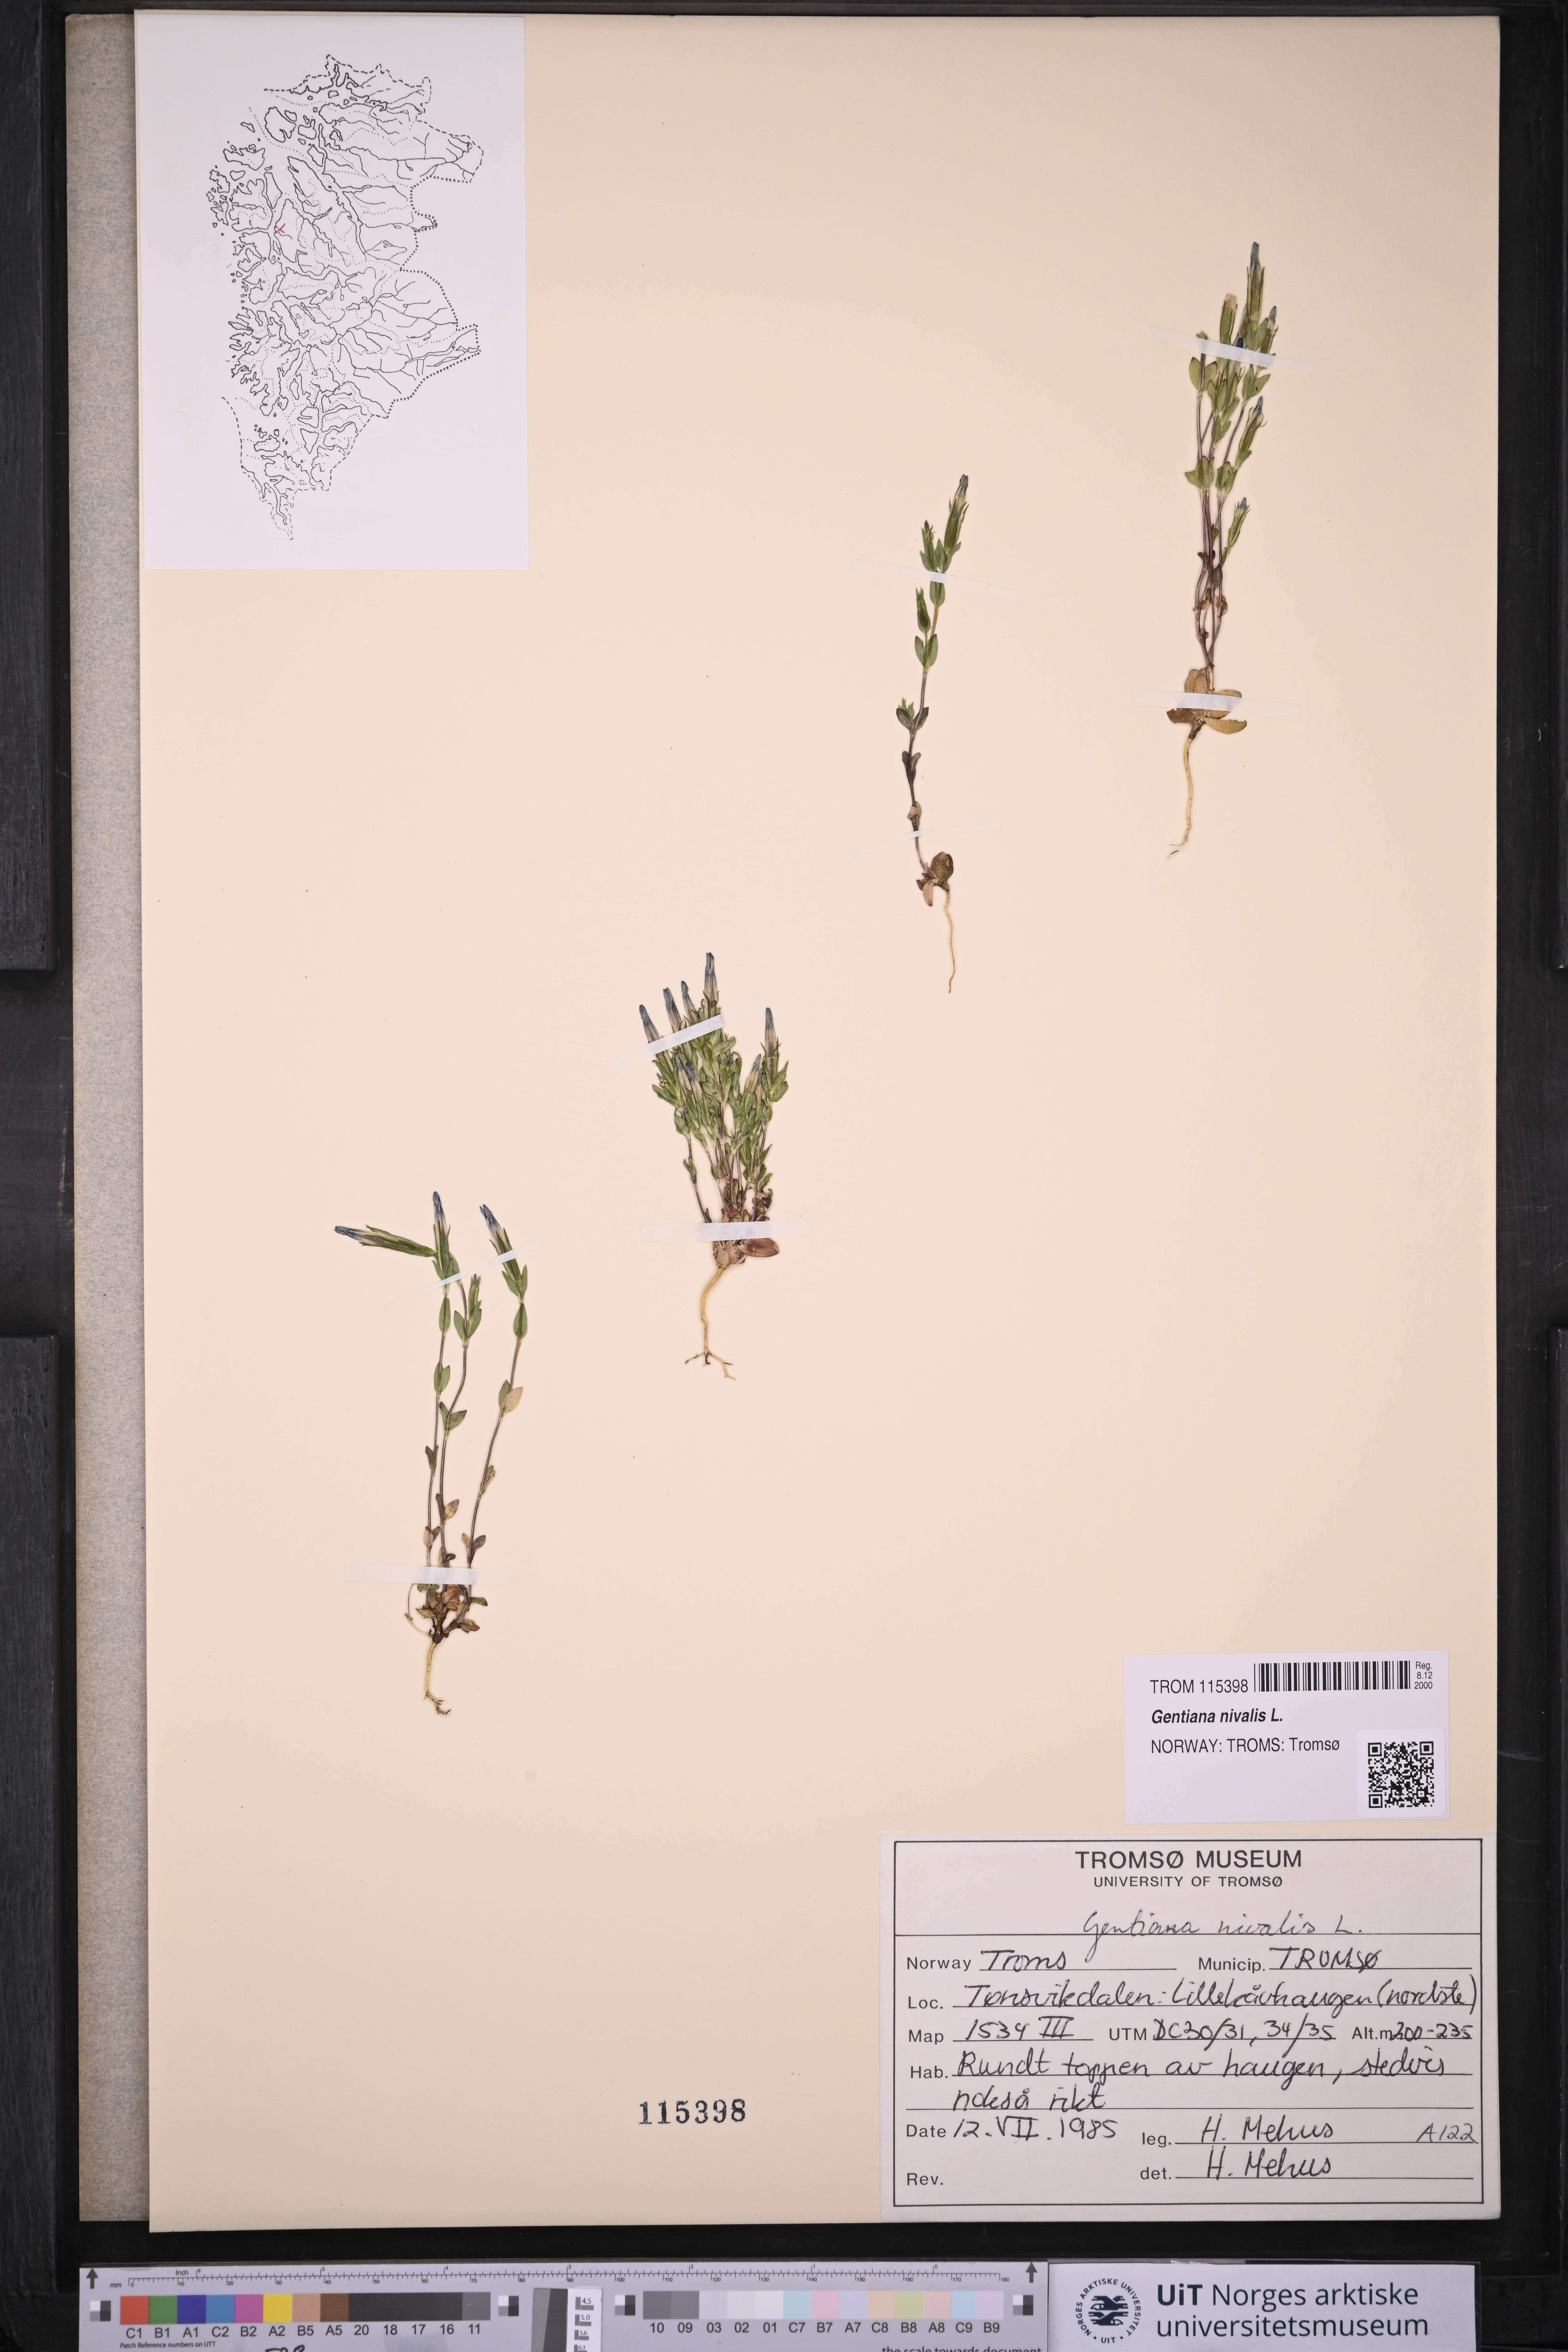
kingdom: Plantae
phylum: Tracheophyta
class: Magnoliopsida
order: Gentianales
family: Gentianaceae
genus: Gentiana
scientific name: Gentiana nivalis
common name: Alpine gentian
